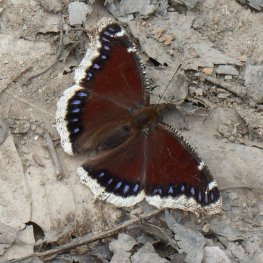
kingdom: Animalia
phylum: Arthropoda
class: Insecta
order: Lepidoptera
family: Nymphalidae
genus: Nymphalis
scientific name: Nymphalis antiopa
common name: Mourning Cloak
